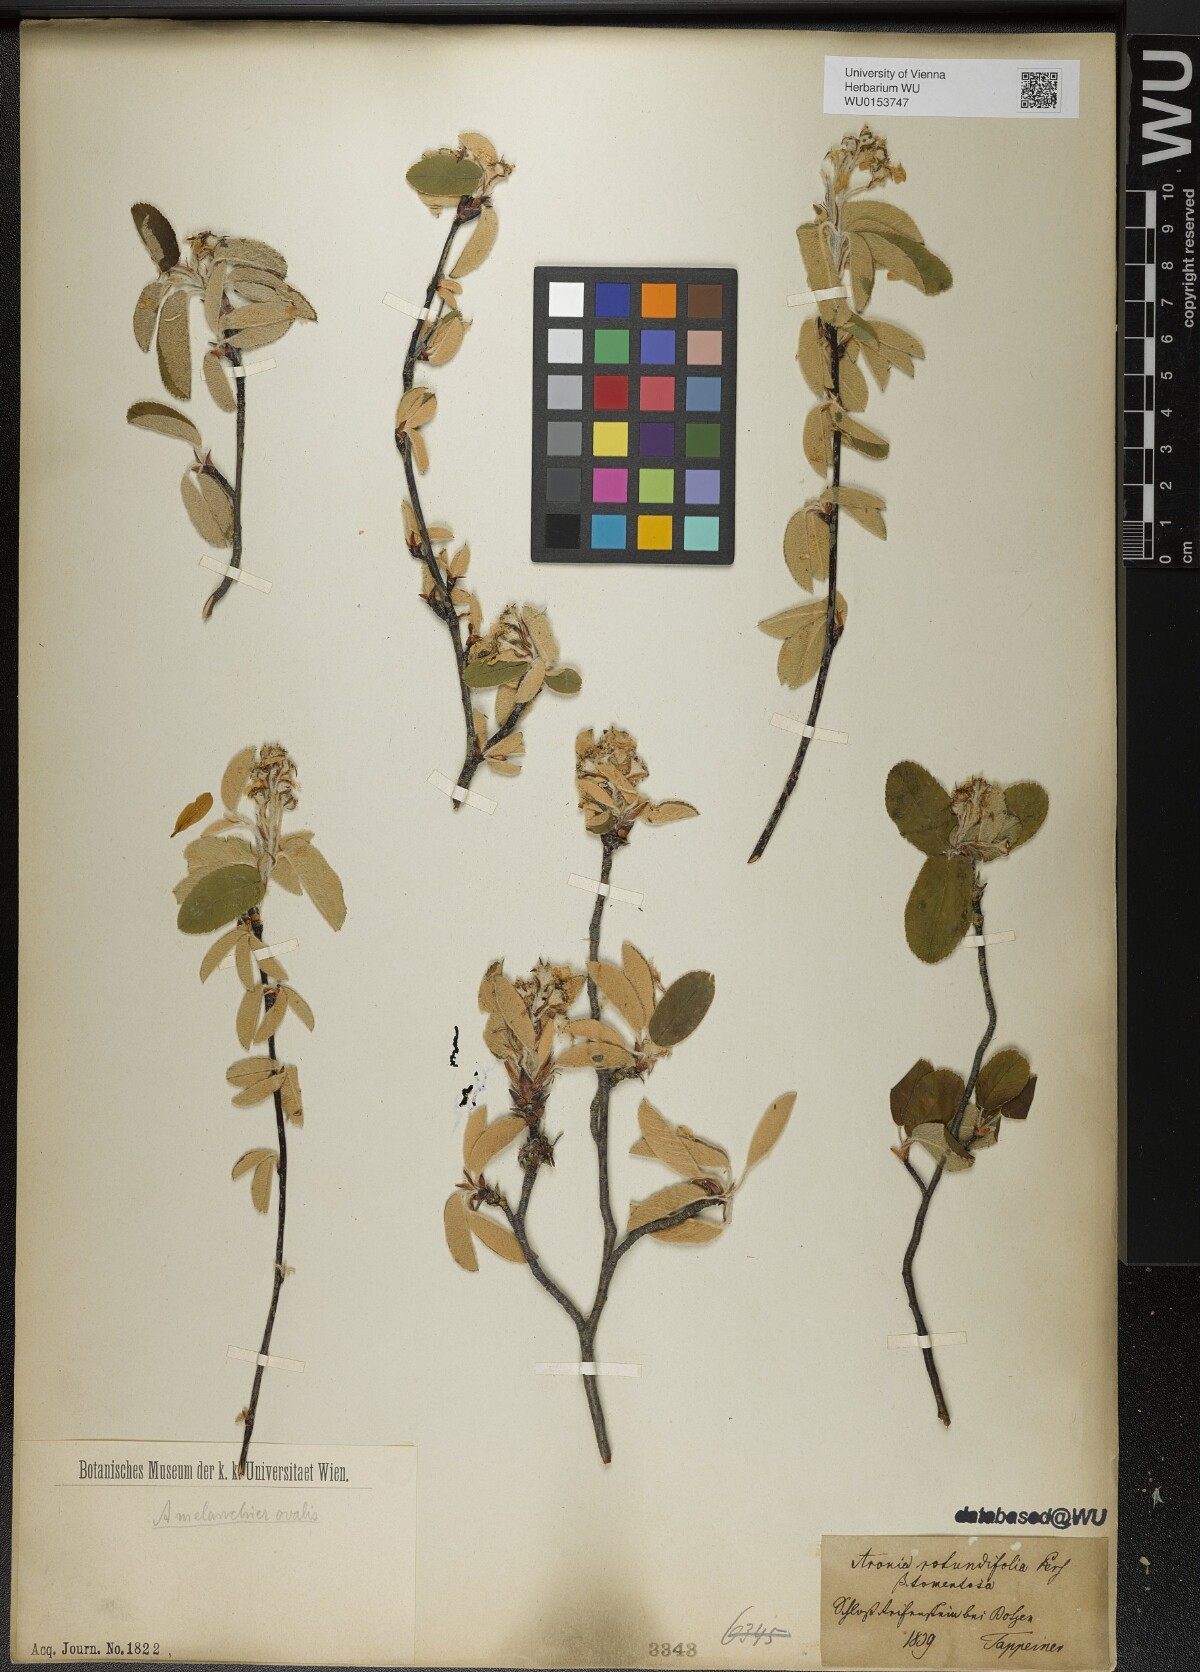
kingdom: Plantae
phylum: Tracheophyta
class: Magnoliopsida
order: Rosales
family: Rosaceae
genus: Amelanchier
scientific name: Amelanchier ovalis
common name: Serviceberry
